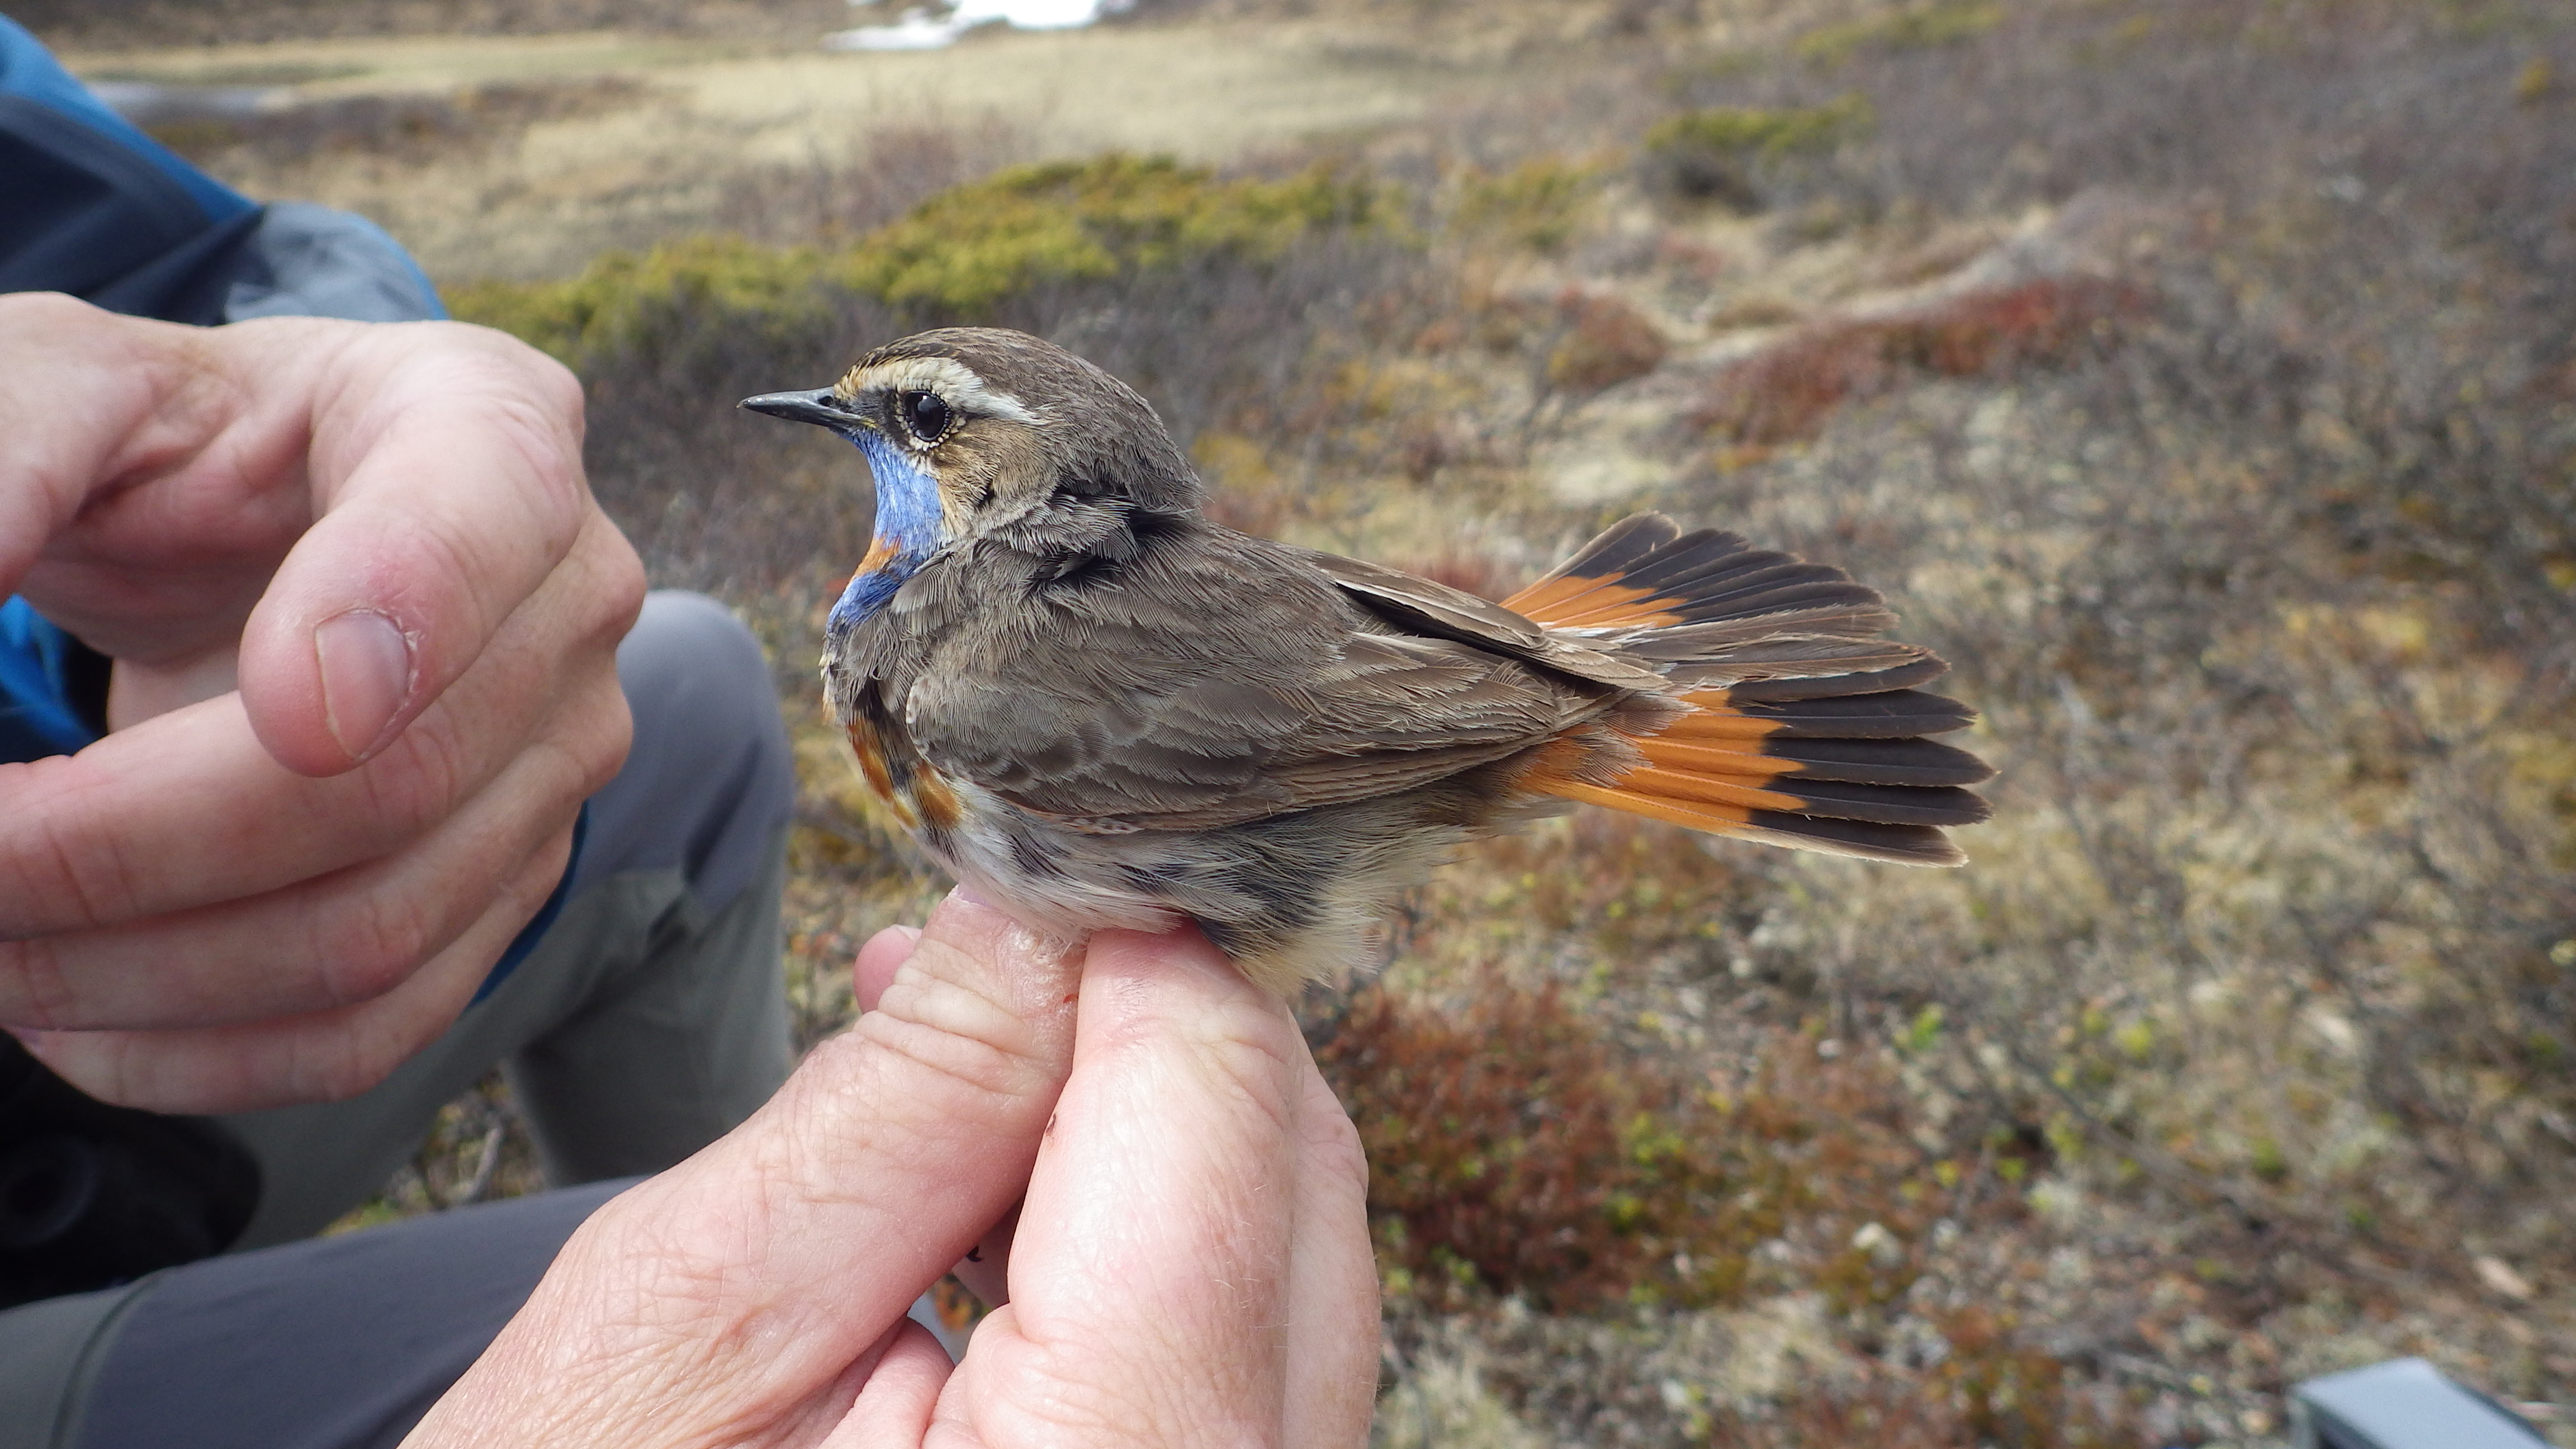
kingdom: Animalia
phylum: Chordata
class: Aves
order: Passeriformes
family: Muscicapidae
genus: Luscinia
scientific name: Luscinia svecica
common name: Bluethroat
